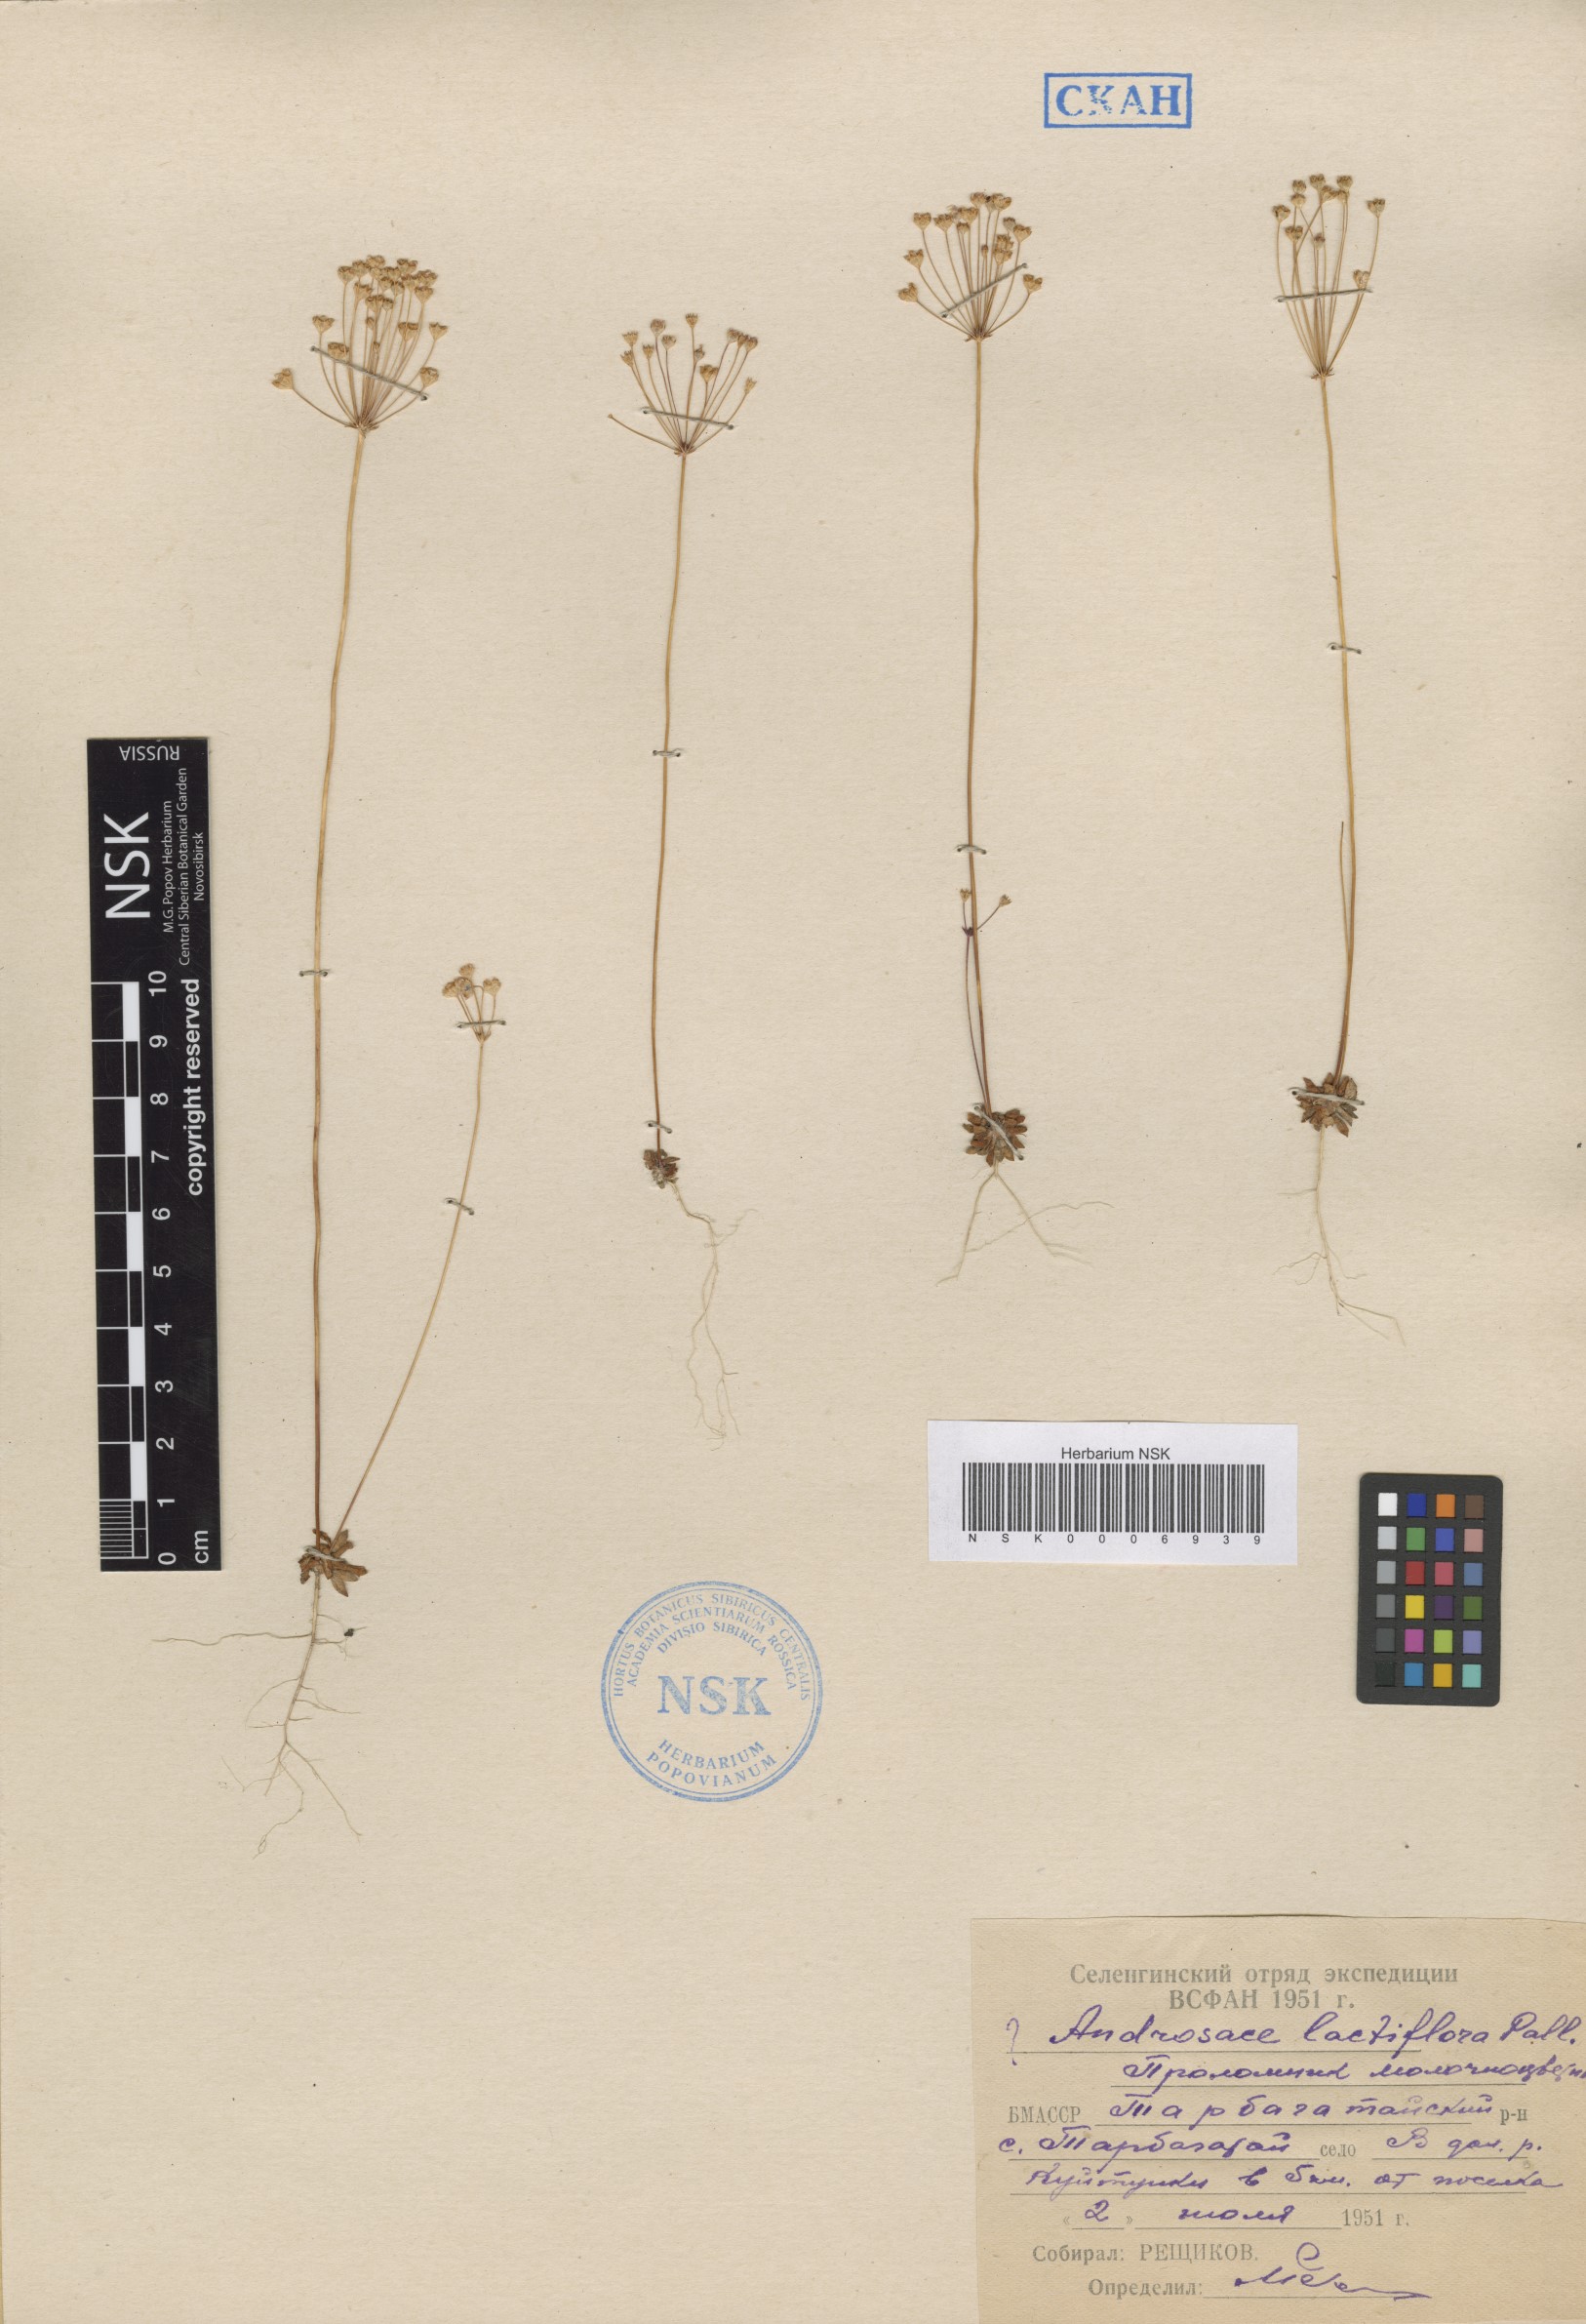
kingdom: Plantae
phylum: Tracheophyta
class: Magnoliopsida
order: Ericales
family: Primulaceae
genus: Androsace
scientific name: Androsace septentrionalis
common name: Hairy northern fairy-candelabra
